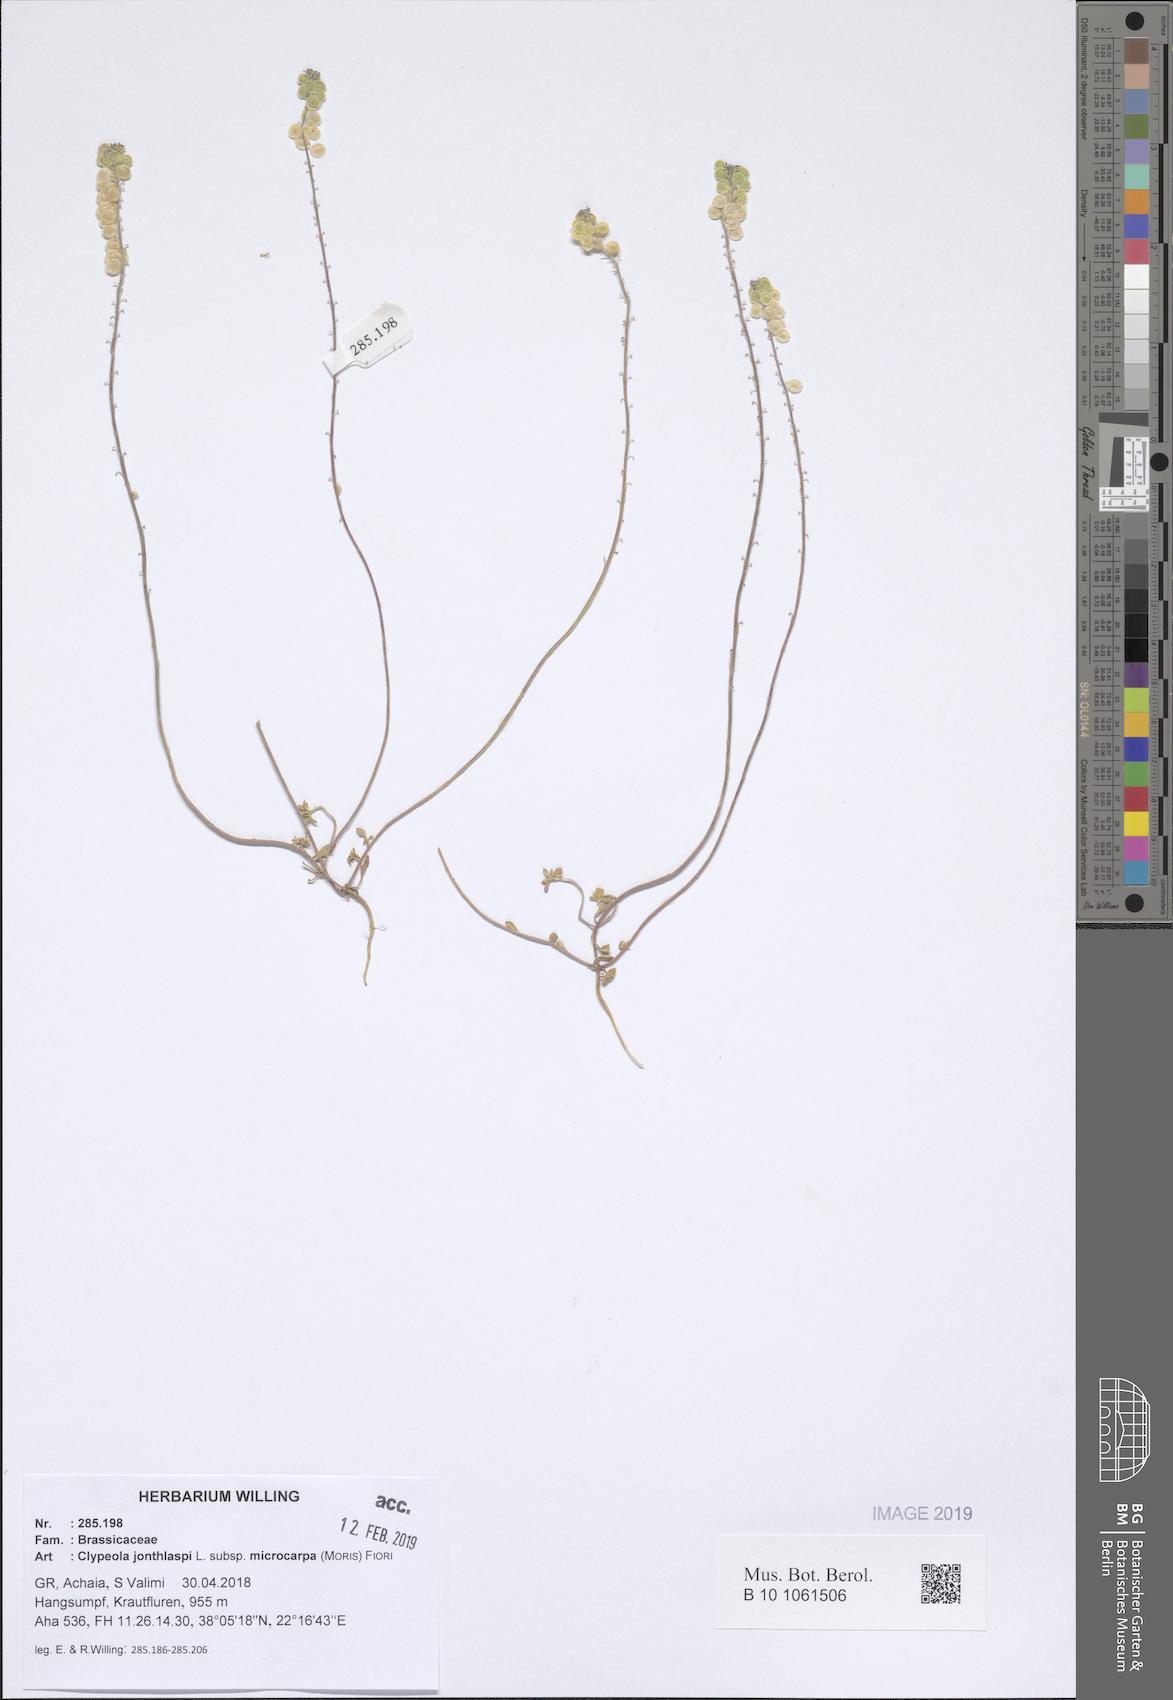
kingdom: Plantae
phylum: Tracheophyta
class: Magnoliopsida
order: Brassicales
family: Brassicaceae
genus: Clypeola
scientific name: Clypeola jonthlaspi
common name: Disk cress
